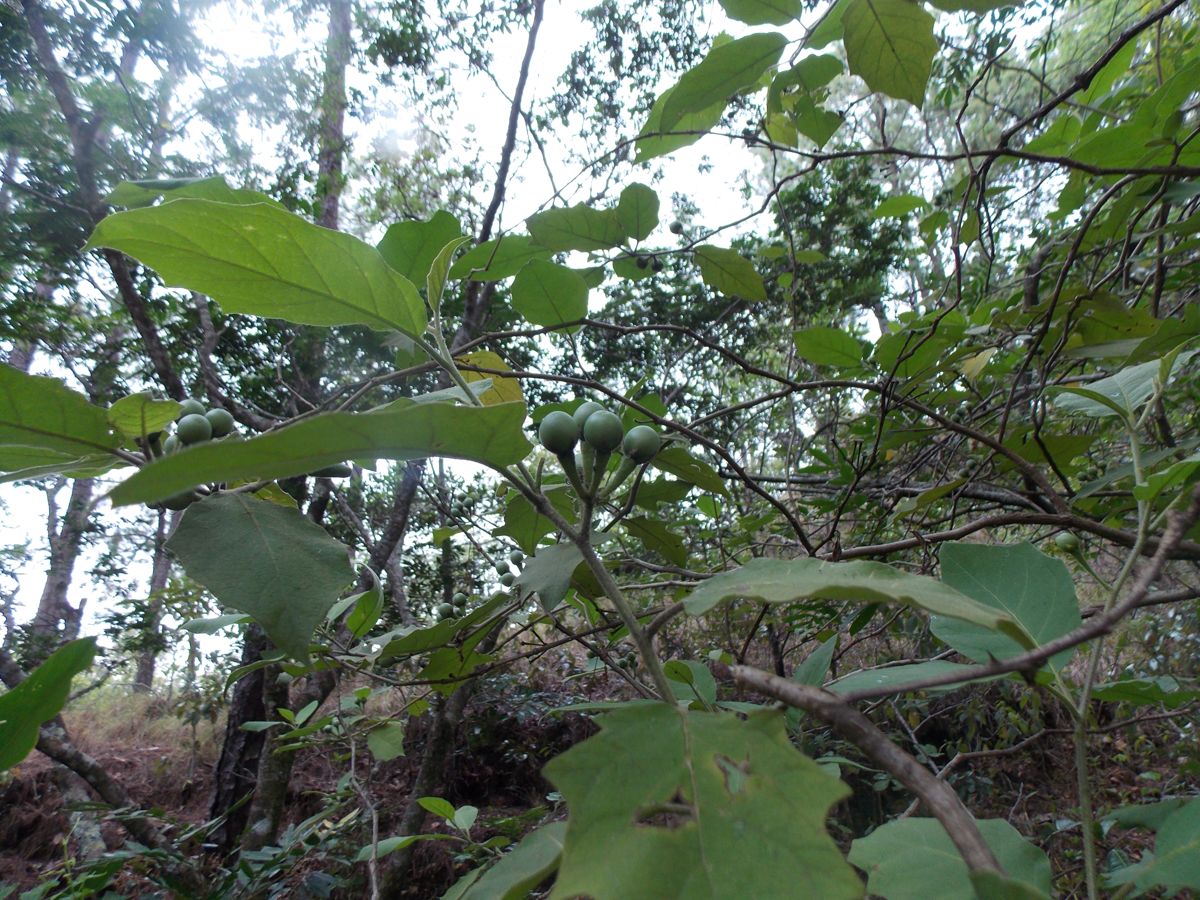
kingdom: Plantae
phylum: Tracheophyta
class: Magnoliopsida
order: Solanales
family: Solanaceae
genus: Solanum
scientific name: Solanum lanceolatum
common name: Orangeberry nightshade
